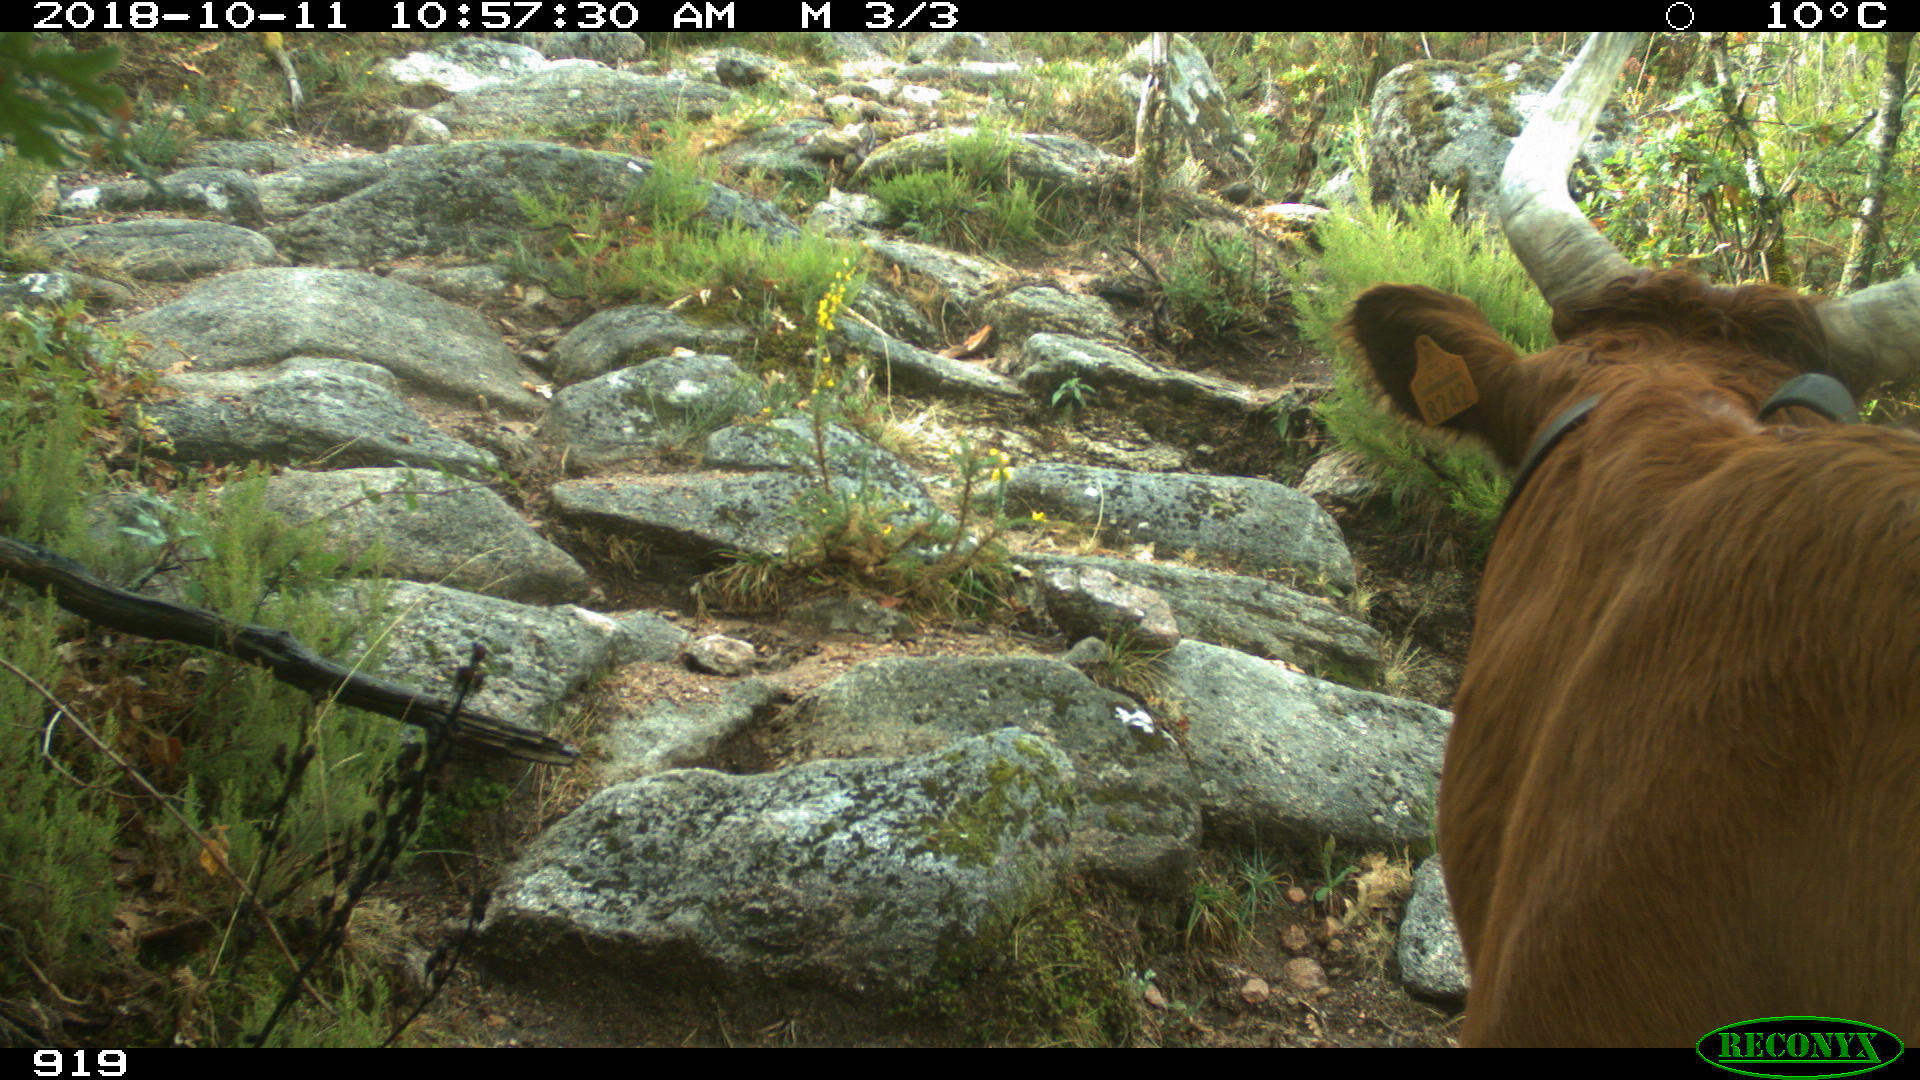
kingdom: Animalia
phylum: Chordata
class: Mammalia
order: Artiodactyla
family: Bovidae
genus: Bos
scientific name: Bos taurus
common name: Domesticated cattle
